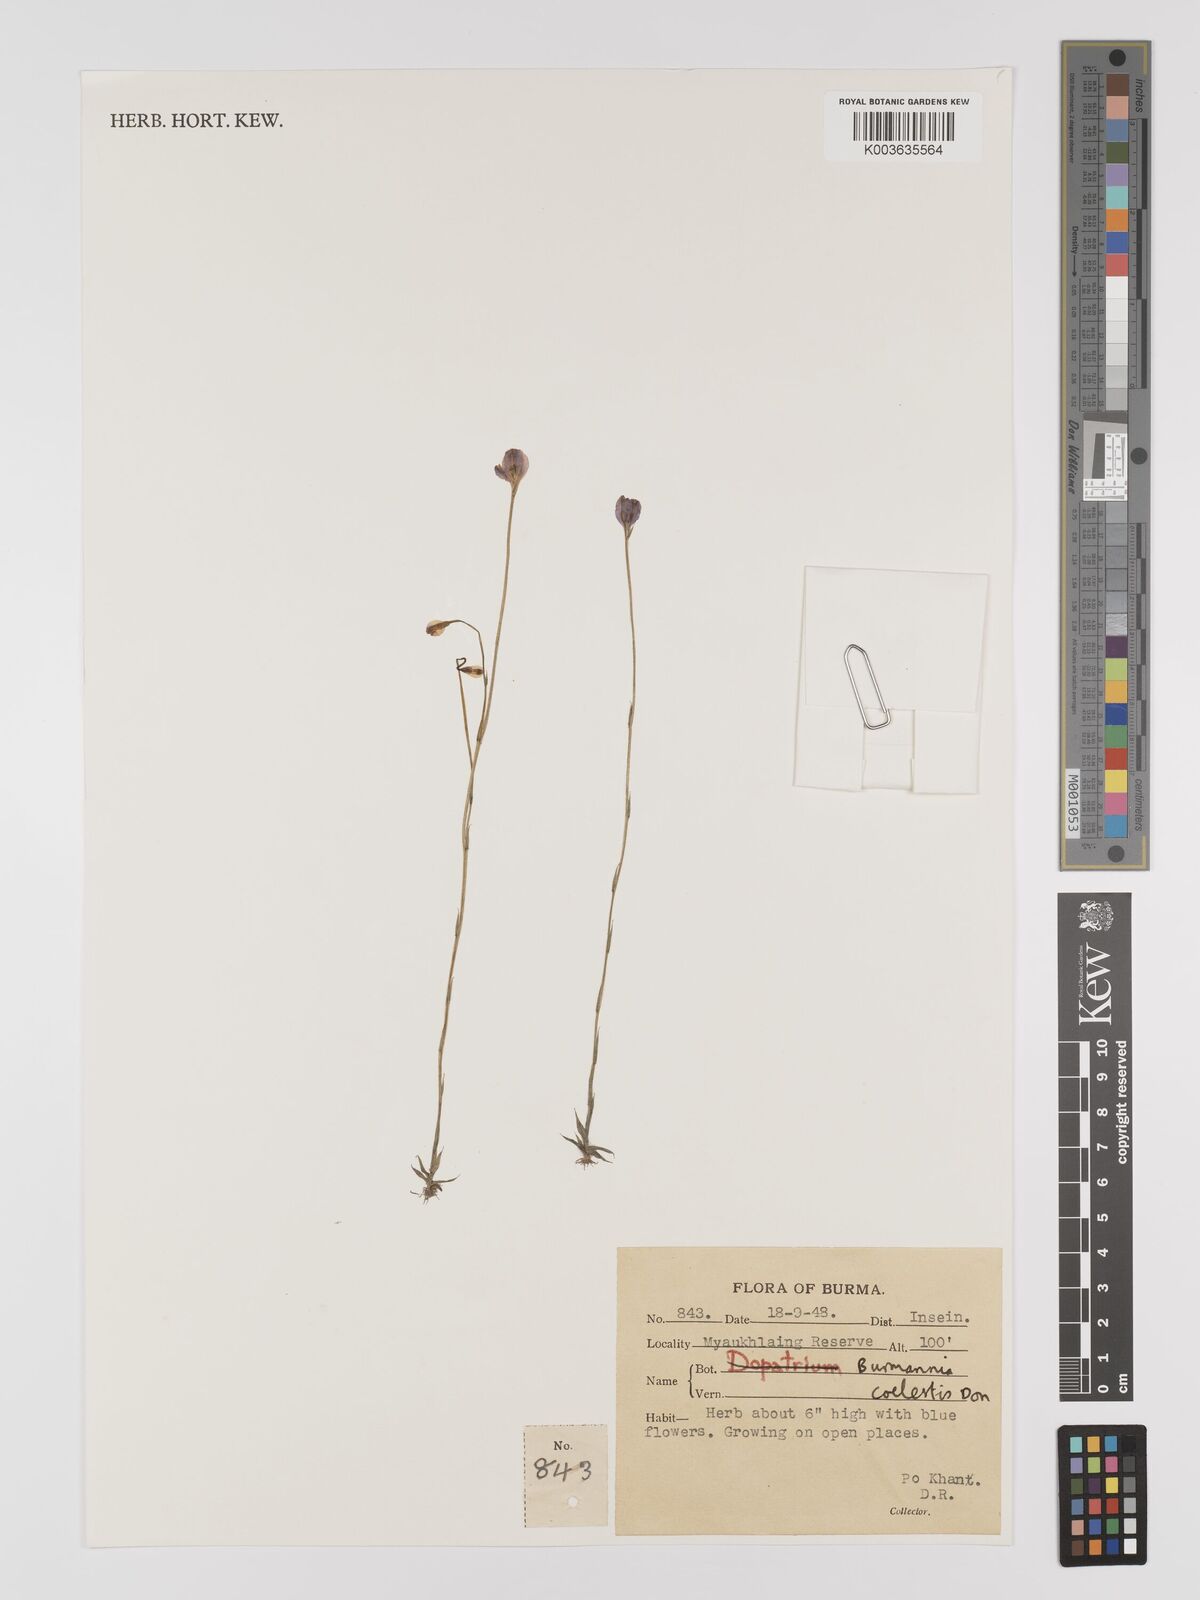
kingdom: Plantae
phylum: Tracheophyta
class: Liliopsida
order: Dioscoreales
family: Burmanniaceae
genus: Burmannia
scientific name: Burmannia coelestis
